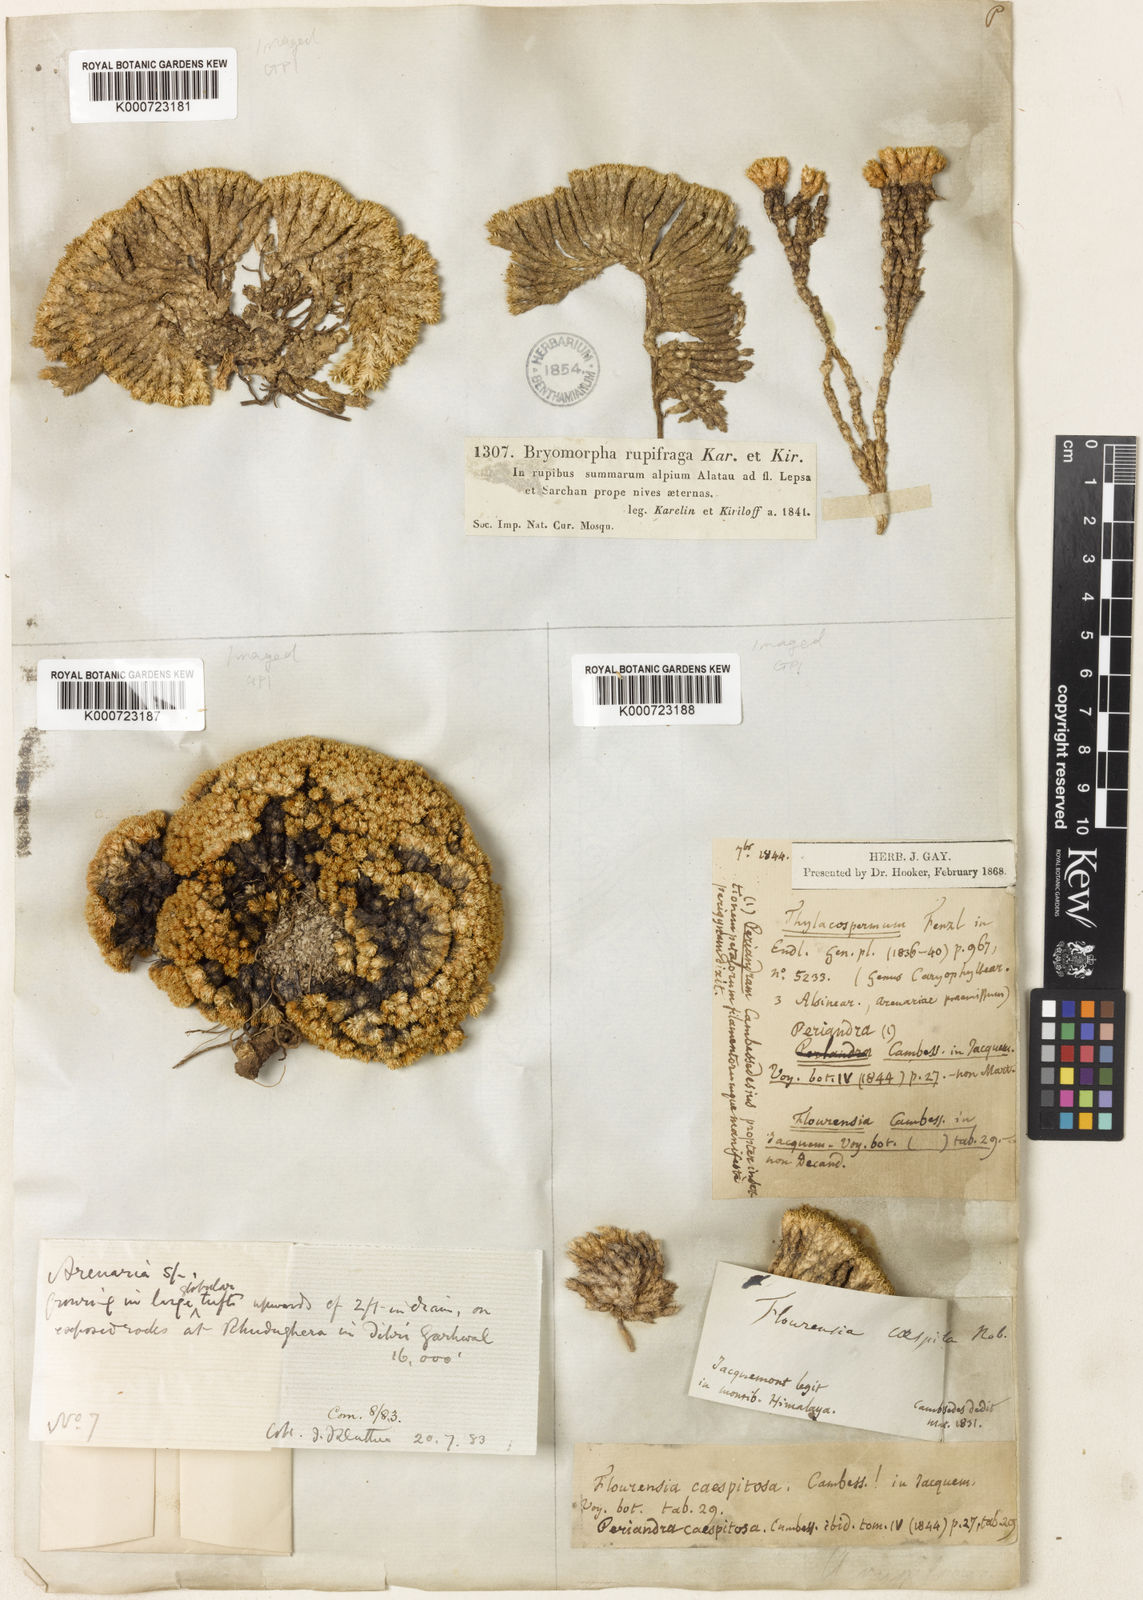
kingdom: Plantae
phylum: Tracheophyta
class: Magnoliopsida
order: Caryophyllales
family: Caryophyllaceae
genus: Thylacospermum
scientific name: Thylacospermum caespitosum
